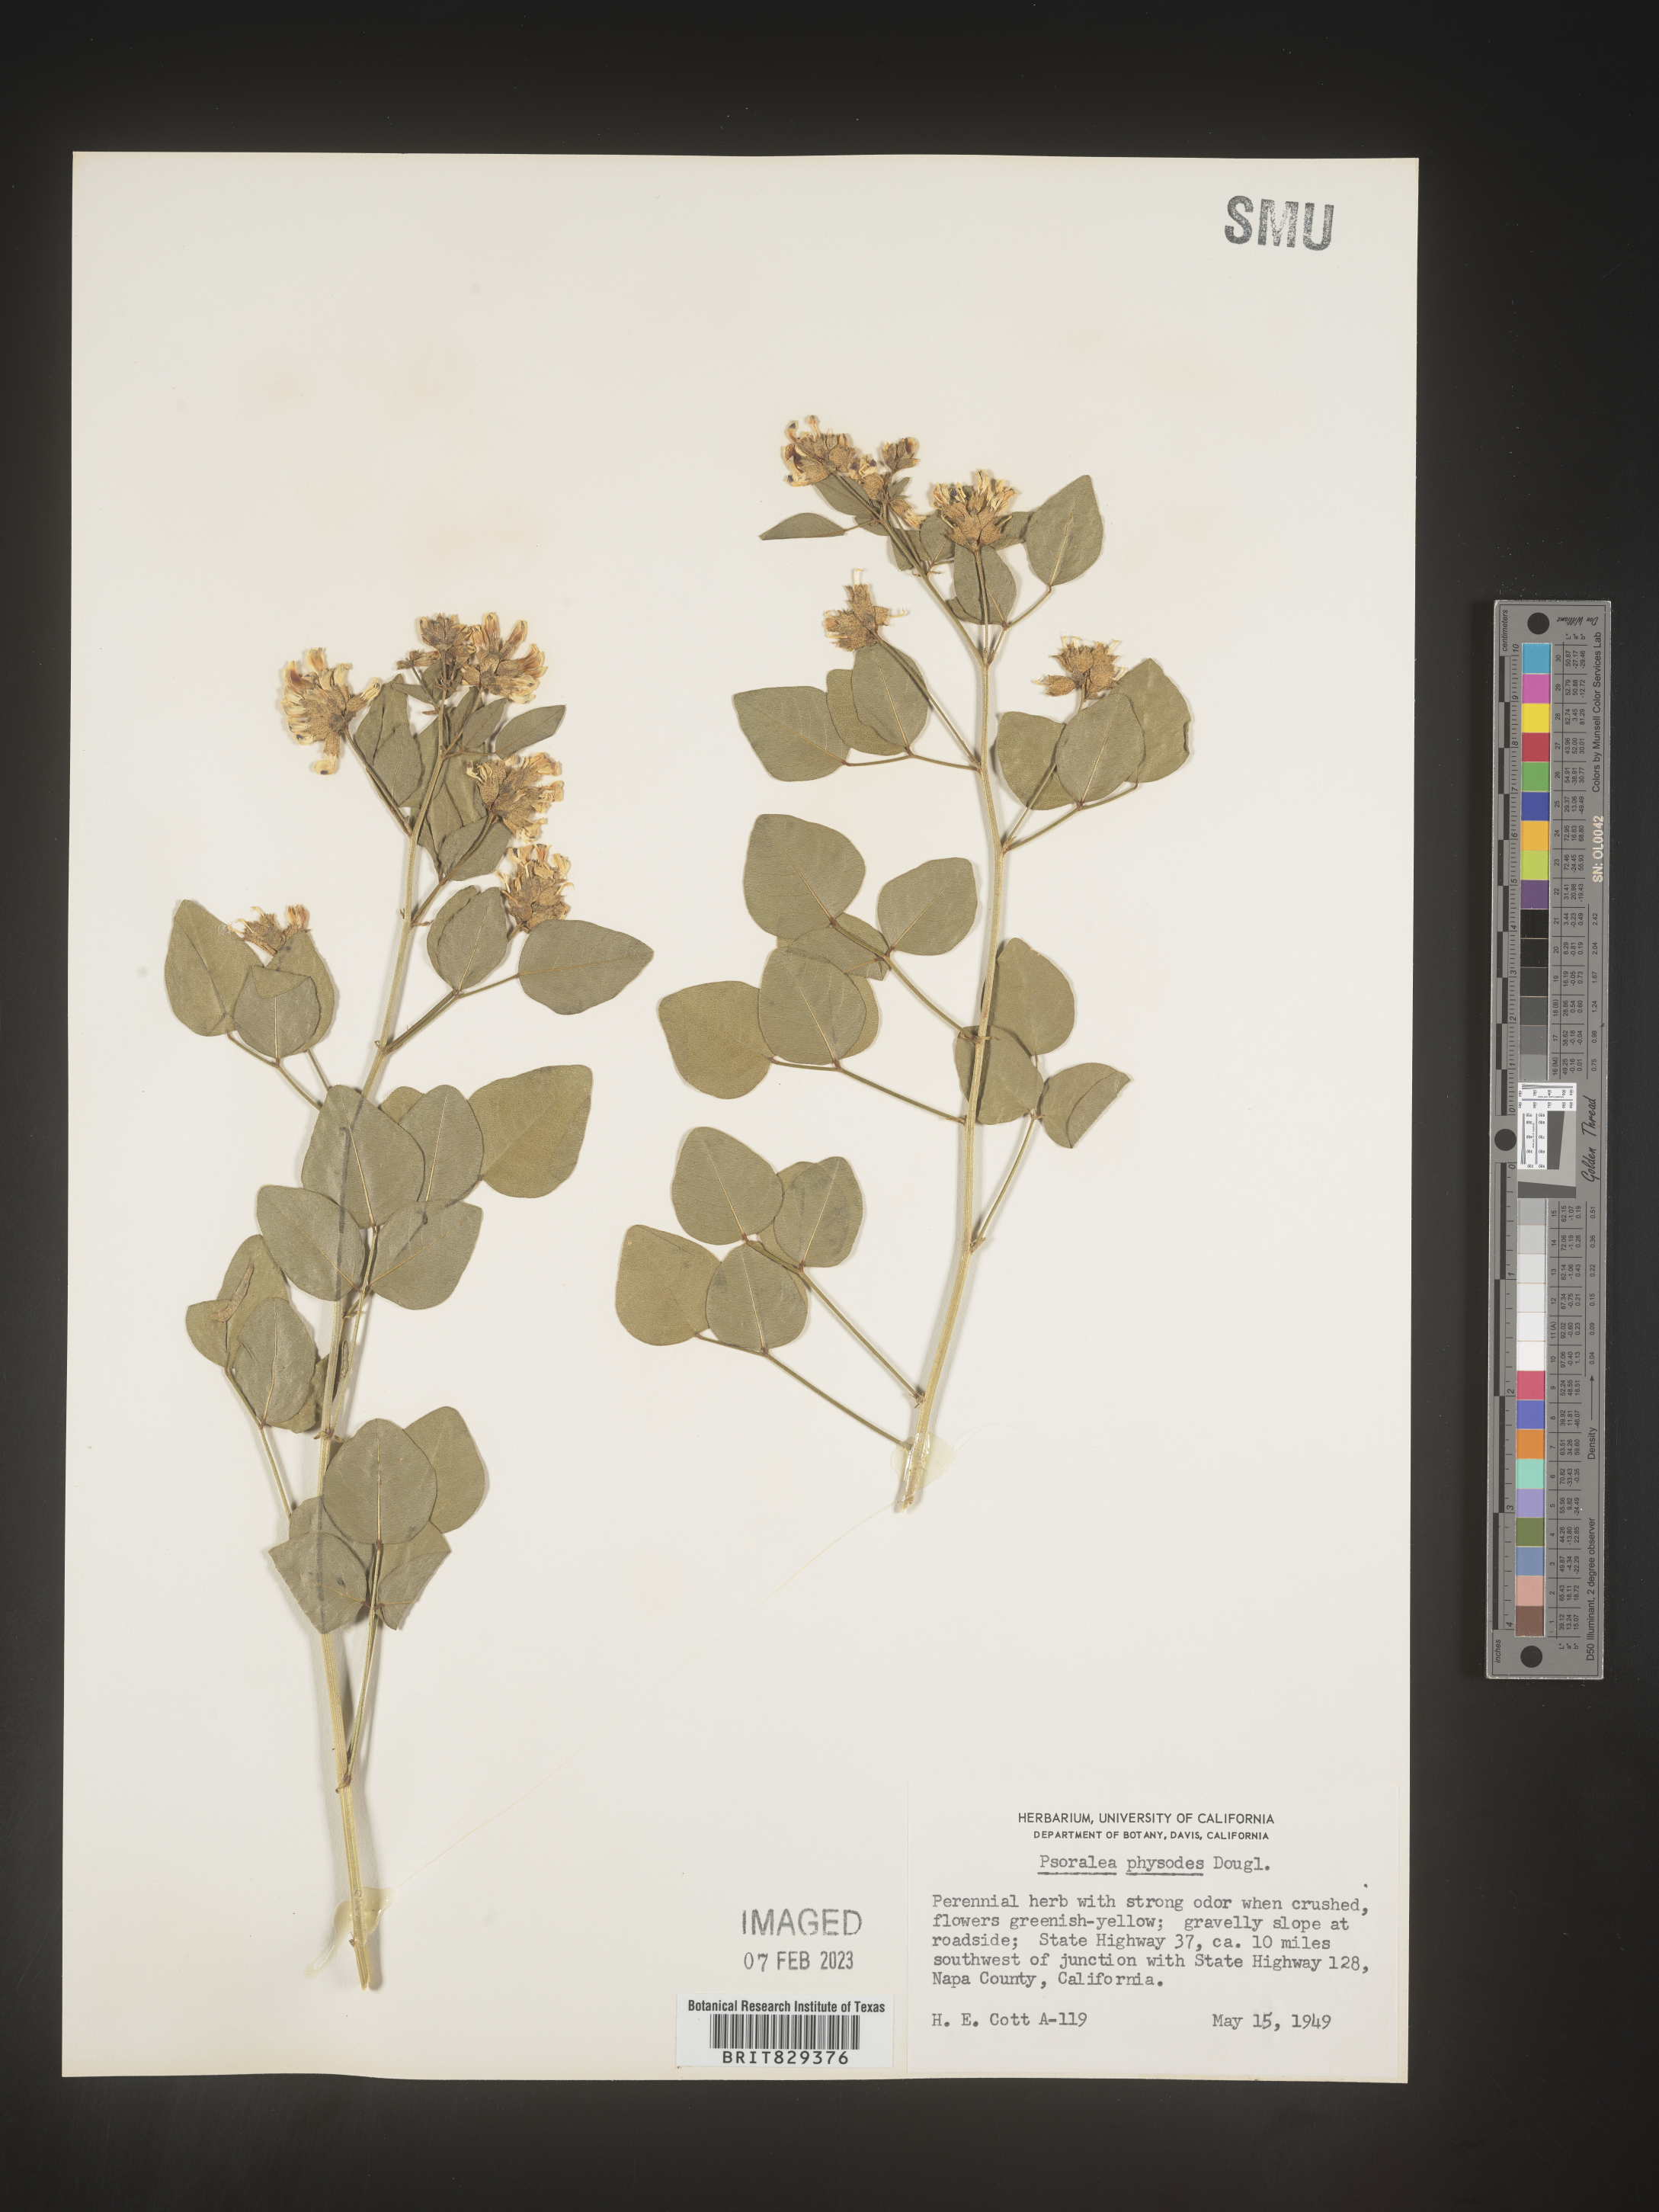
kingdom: Plantae
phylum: Tracheophyta
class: Magnoliopsida
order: Fabales
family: Fabaceae
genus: Psoralea
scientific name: Psoralea
